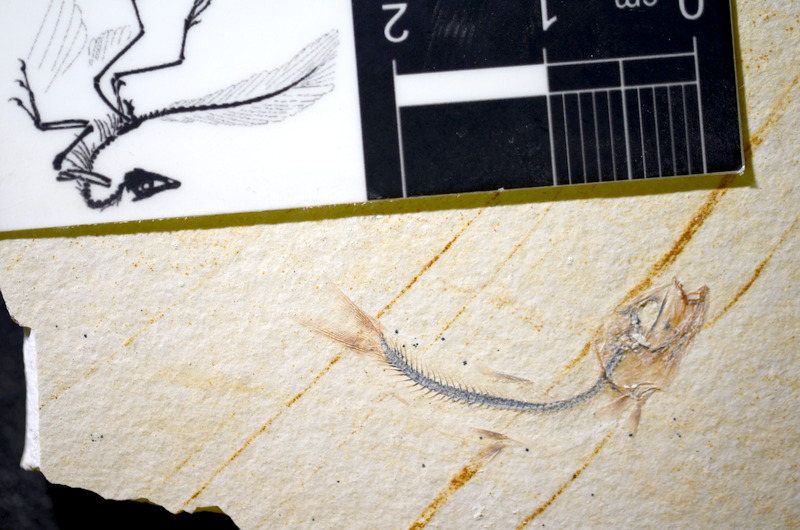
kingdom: Animalia
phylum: Chordata
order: Salmoniformes
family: Orthogonikleithridae
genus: Orthogonikleithrus
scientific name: Orthogonikleithrus hoelli
